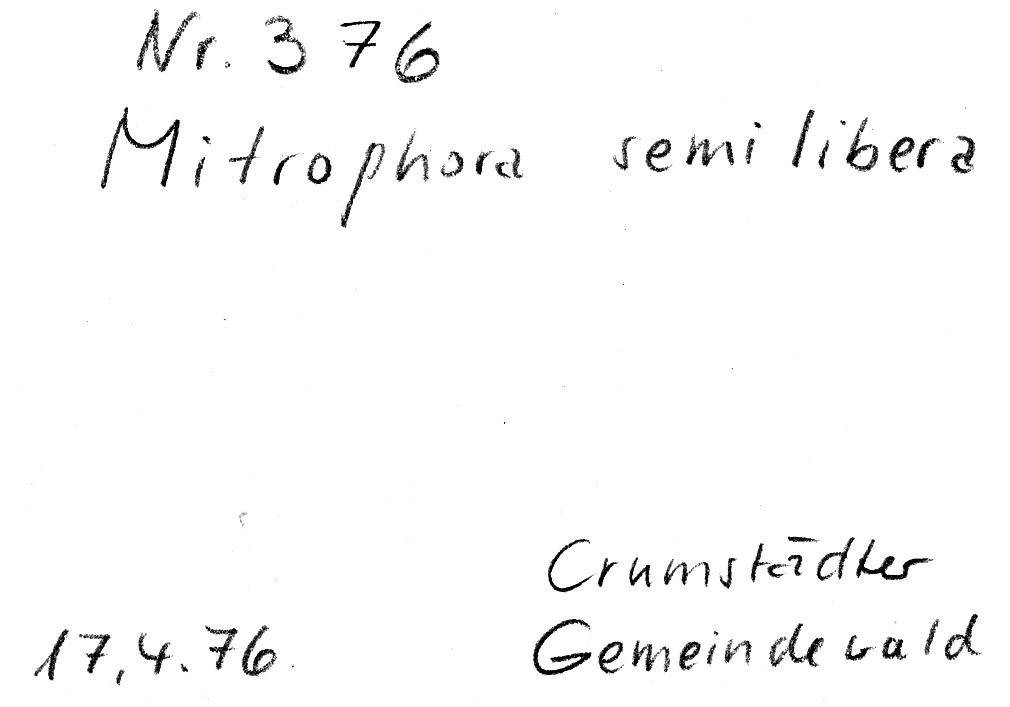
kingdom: Fungi
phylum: Ascomycota
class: Pezizomycetes
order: Pezizales
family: Morchellaceae
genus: Morchella
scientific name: Morchella semilibera
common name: Semifree morel
